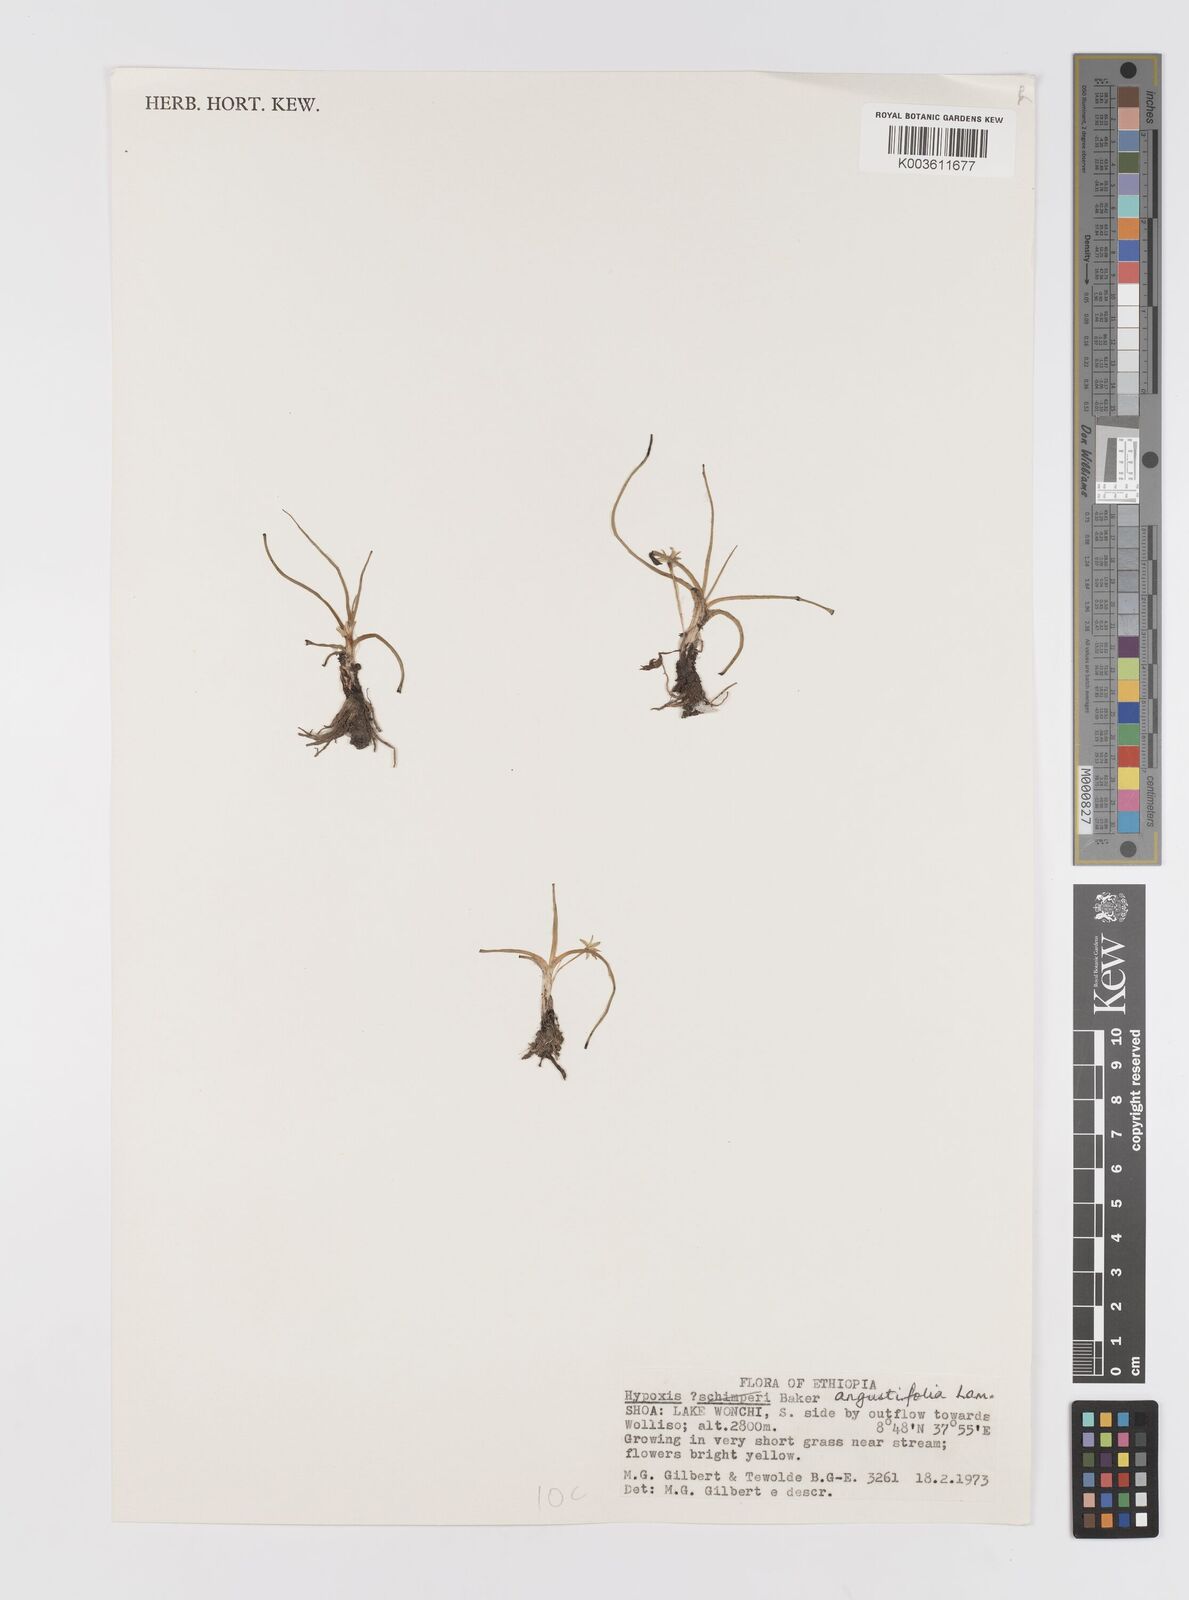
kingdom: Plantae
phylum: Tracheophyta
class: Liliopsida
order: Asparagales
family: Hypoxidaceae
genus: Hypoxis
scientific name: Hypoxis angustifolia
